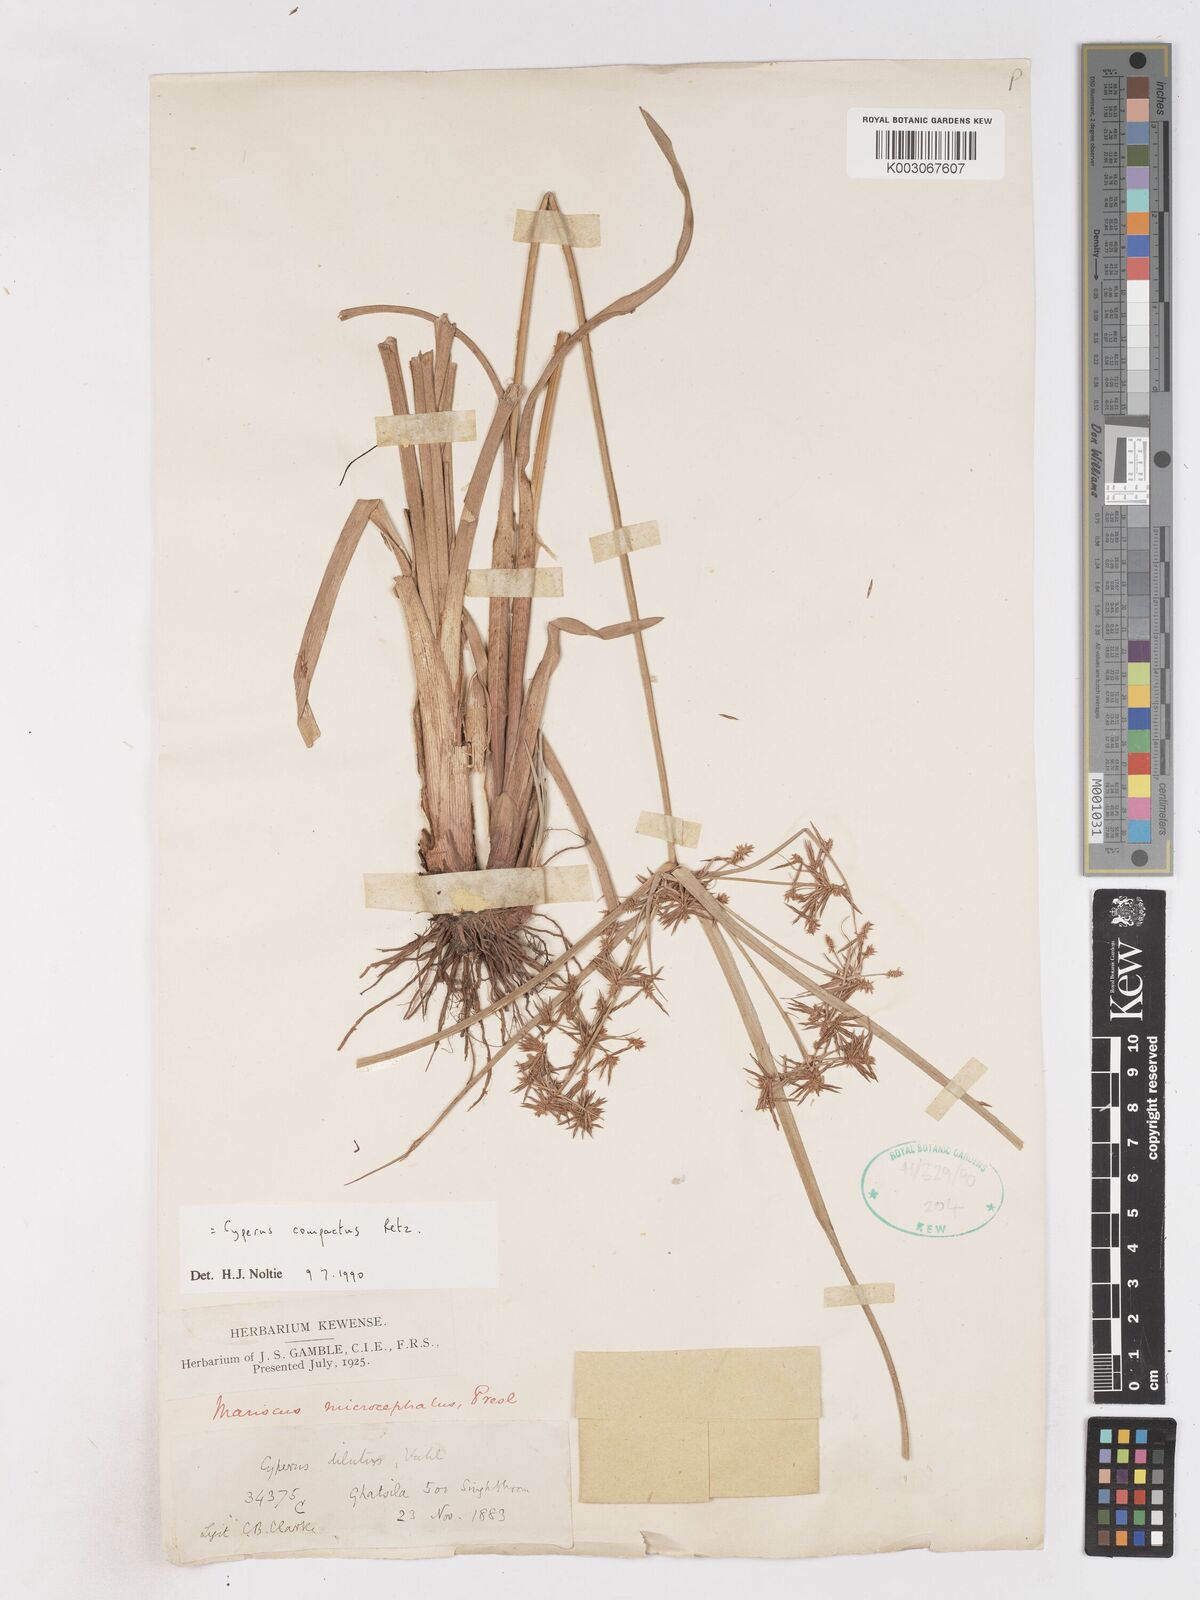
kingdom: Plantae
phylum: Tracheophyta
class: Liliopsida
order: Poales
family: Cyperaceae
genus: Cyperus
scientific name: Cyperus compactus
